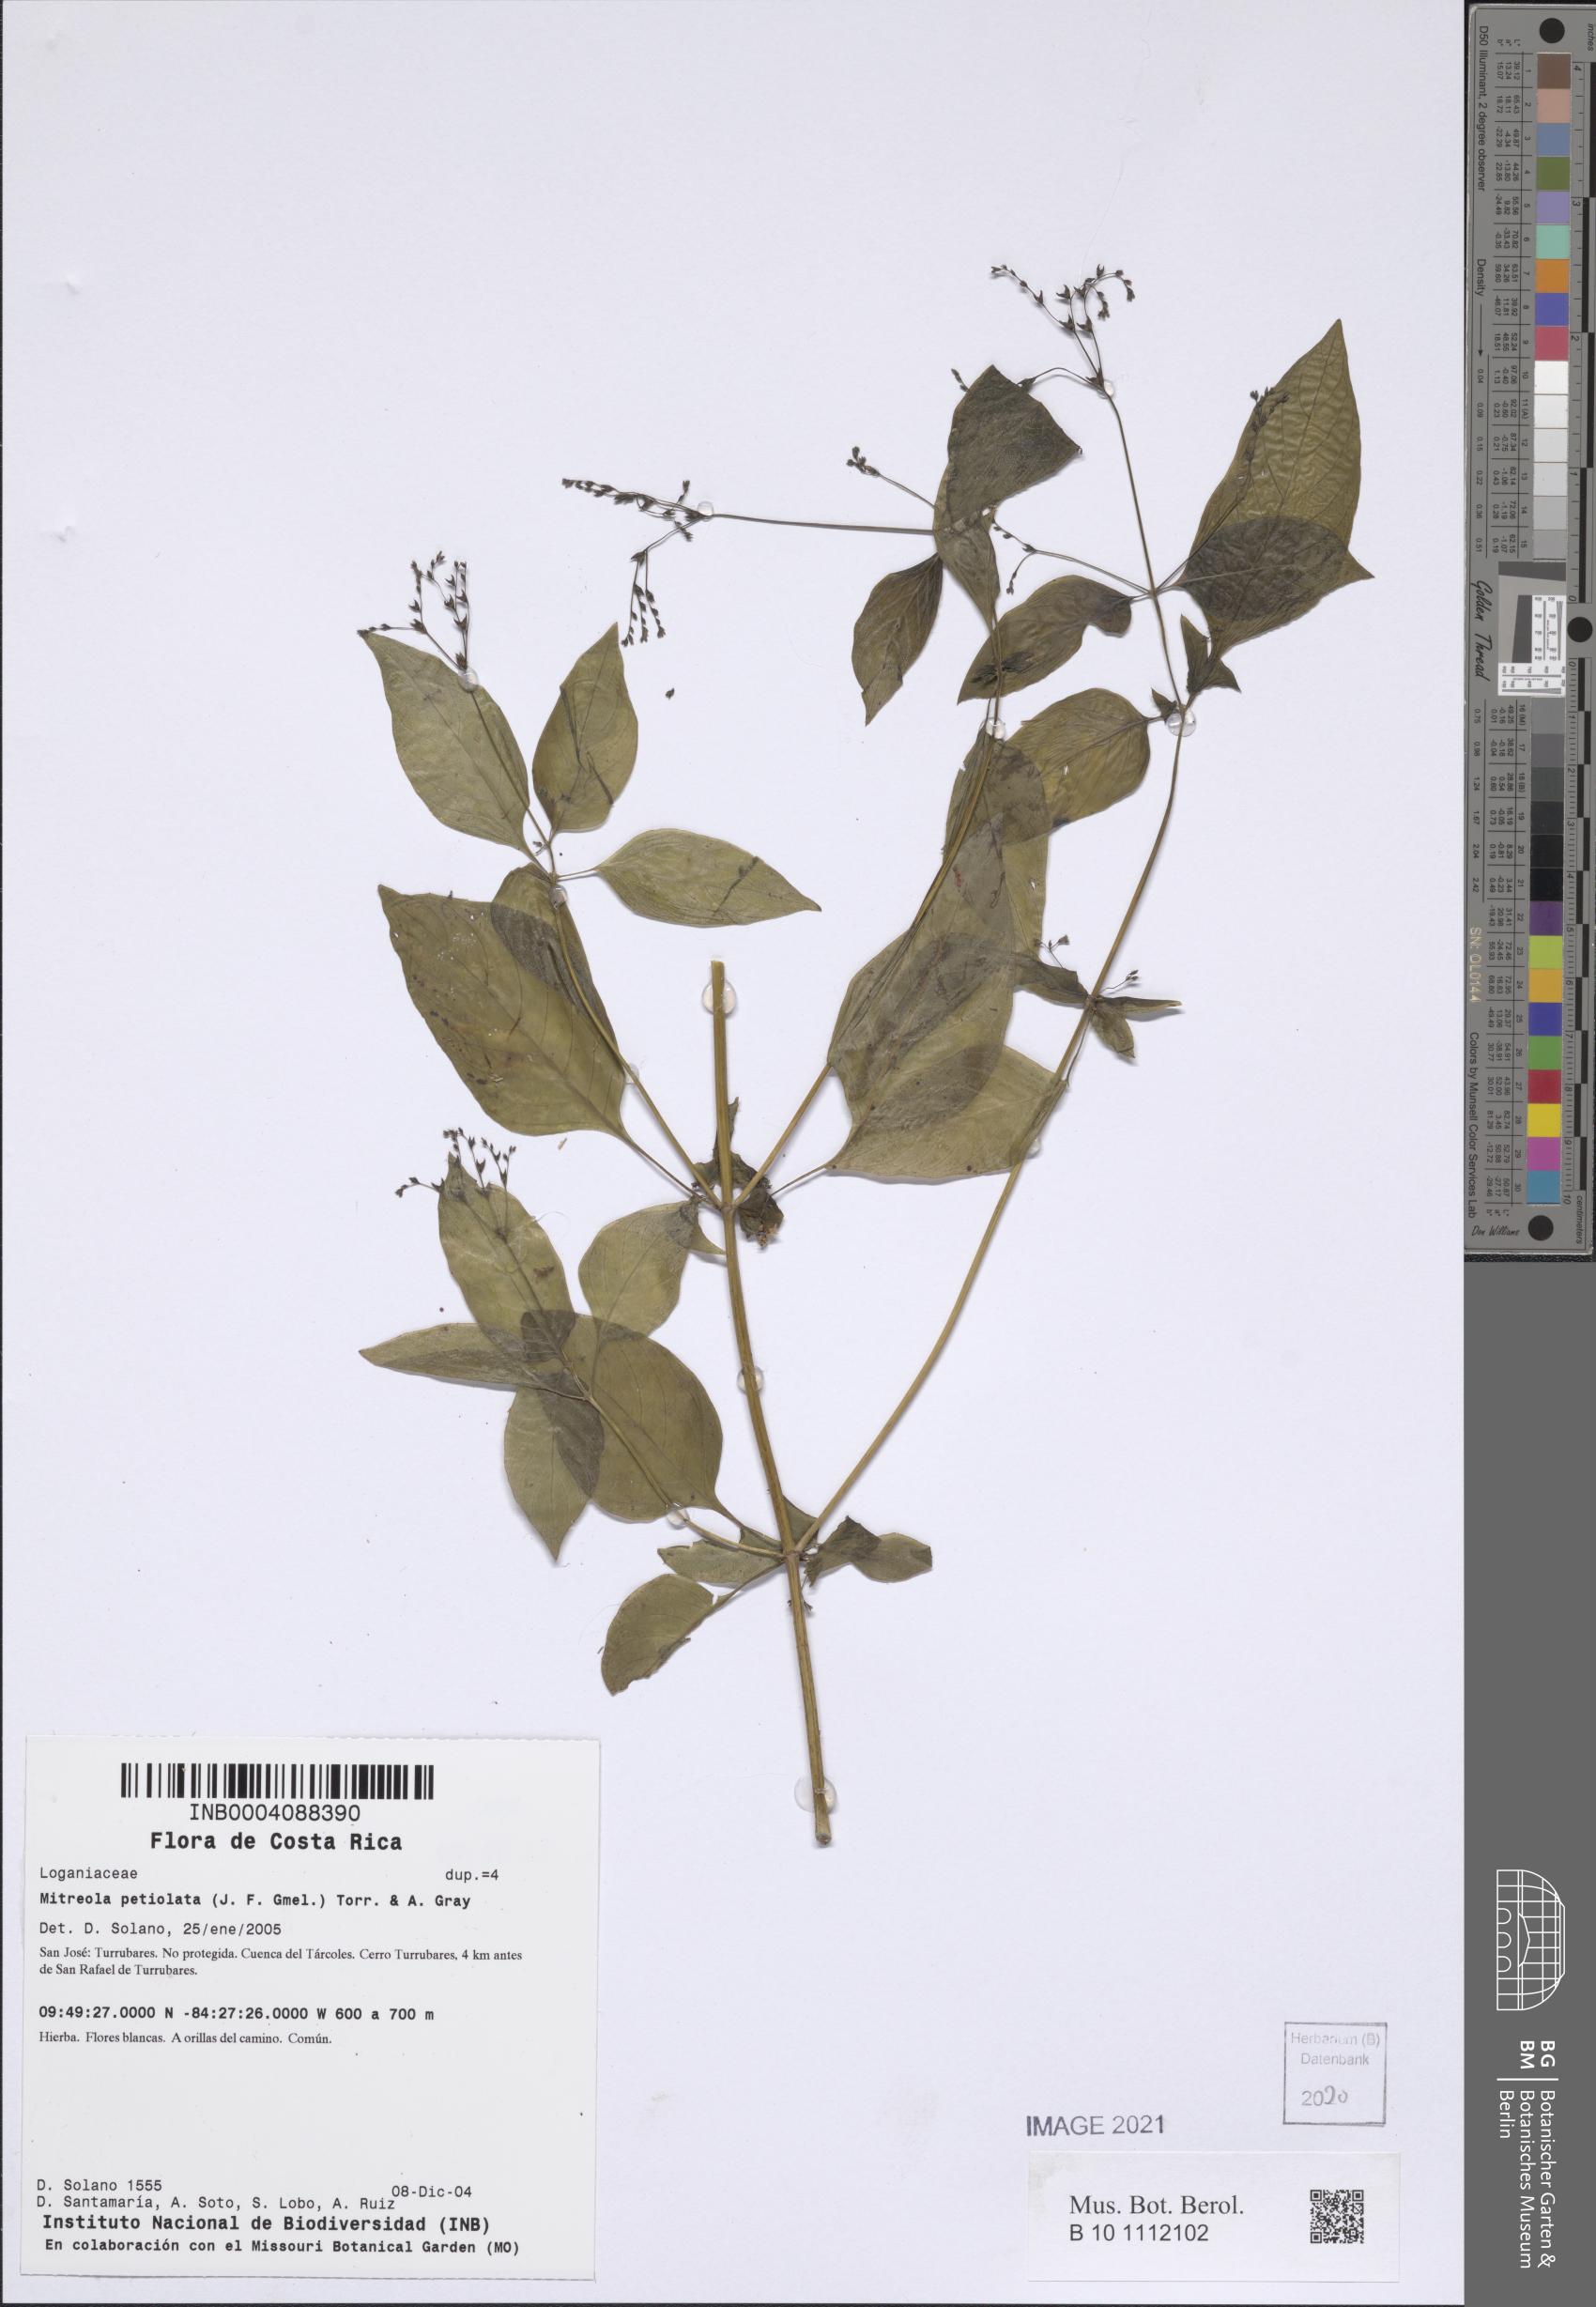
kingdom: Plantae
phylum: Tracheophyta
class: Magnoliopsida
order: Gentianales
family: Loganiaceae
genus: Mitreola
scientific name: Mitreola petiolata
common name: Lax hornpod
